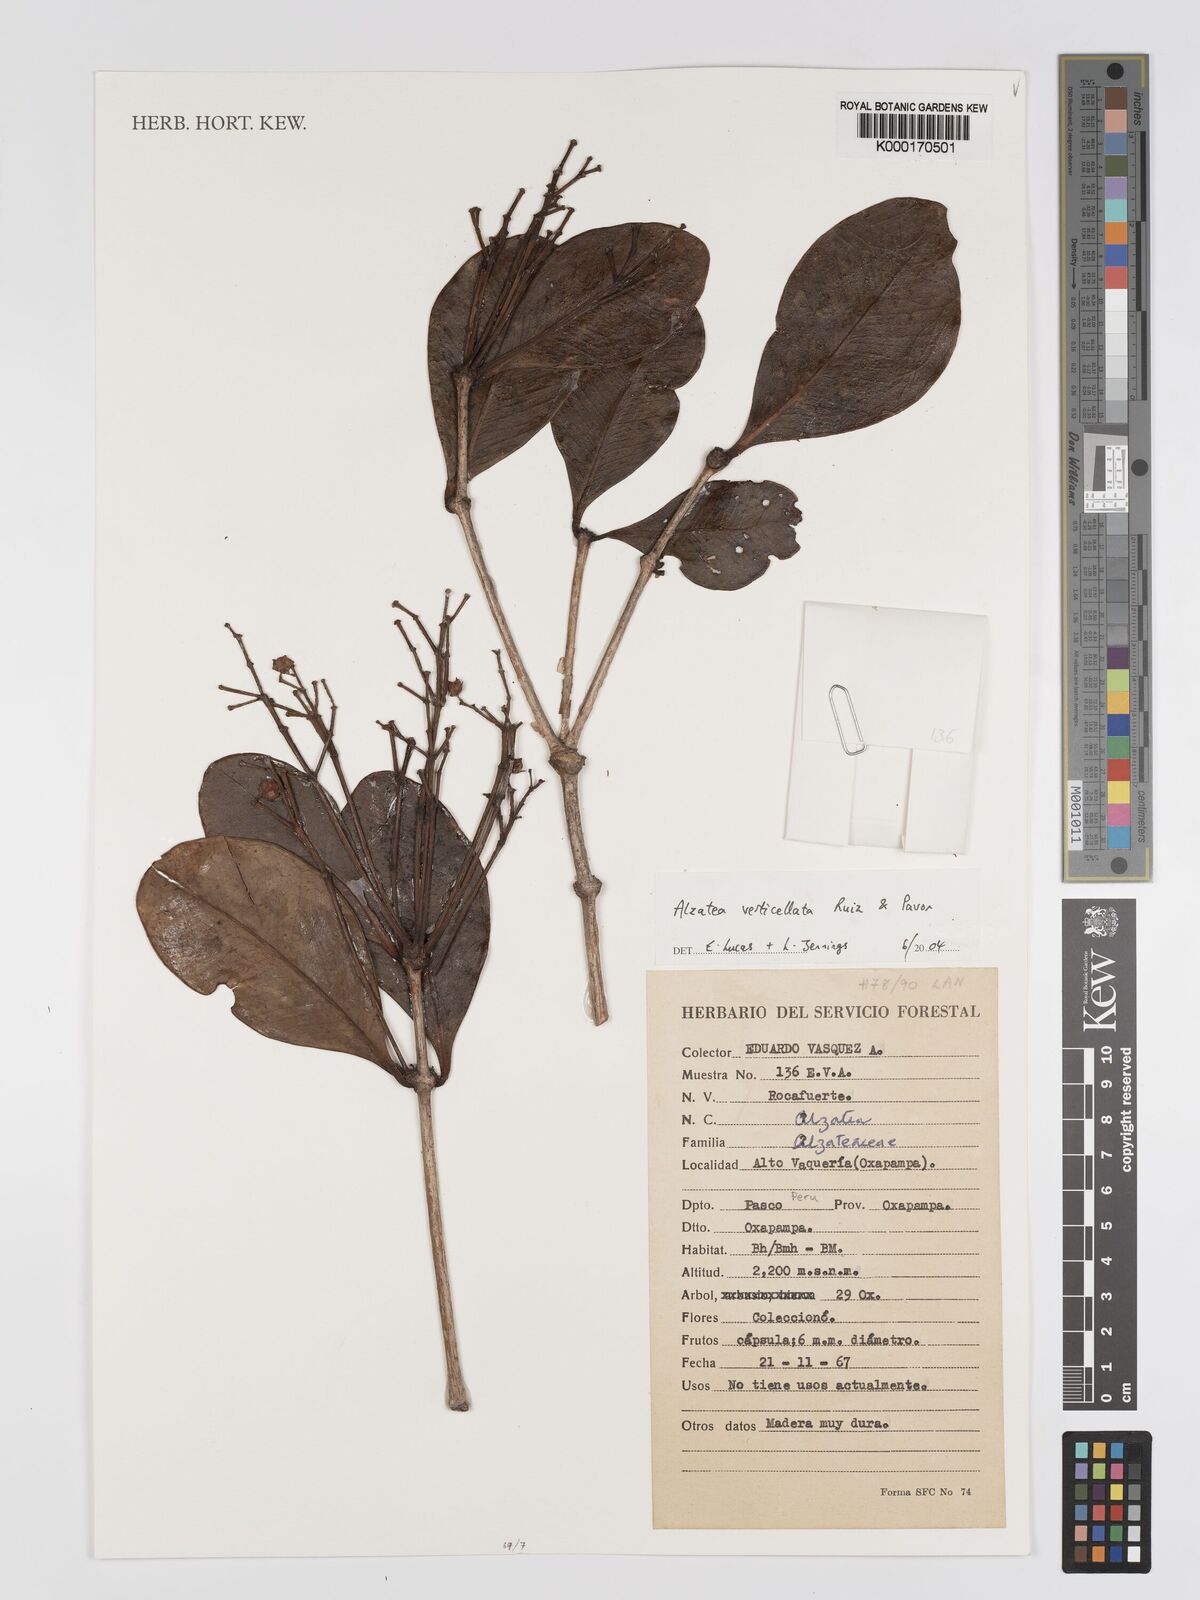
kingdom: Plantae
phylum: Tracheophyta
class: Magnoliopsida
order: Myrtales
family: Alzateaceae
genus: Alzatea
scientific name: Alzatea
